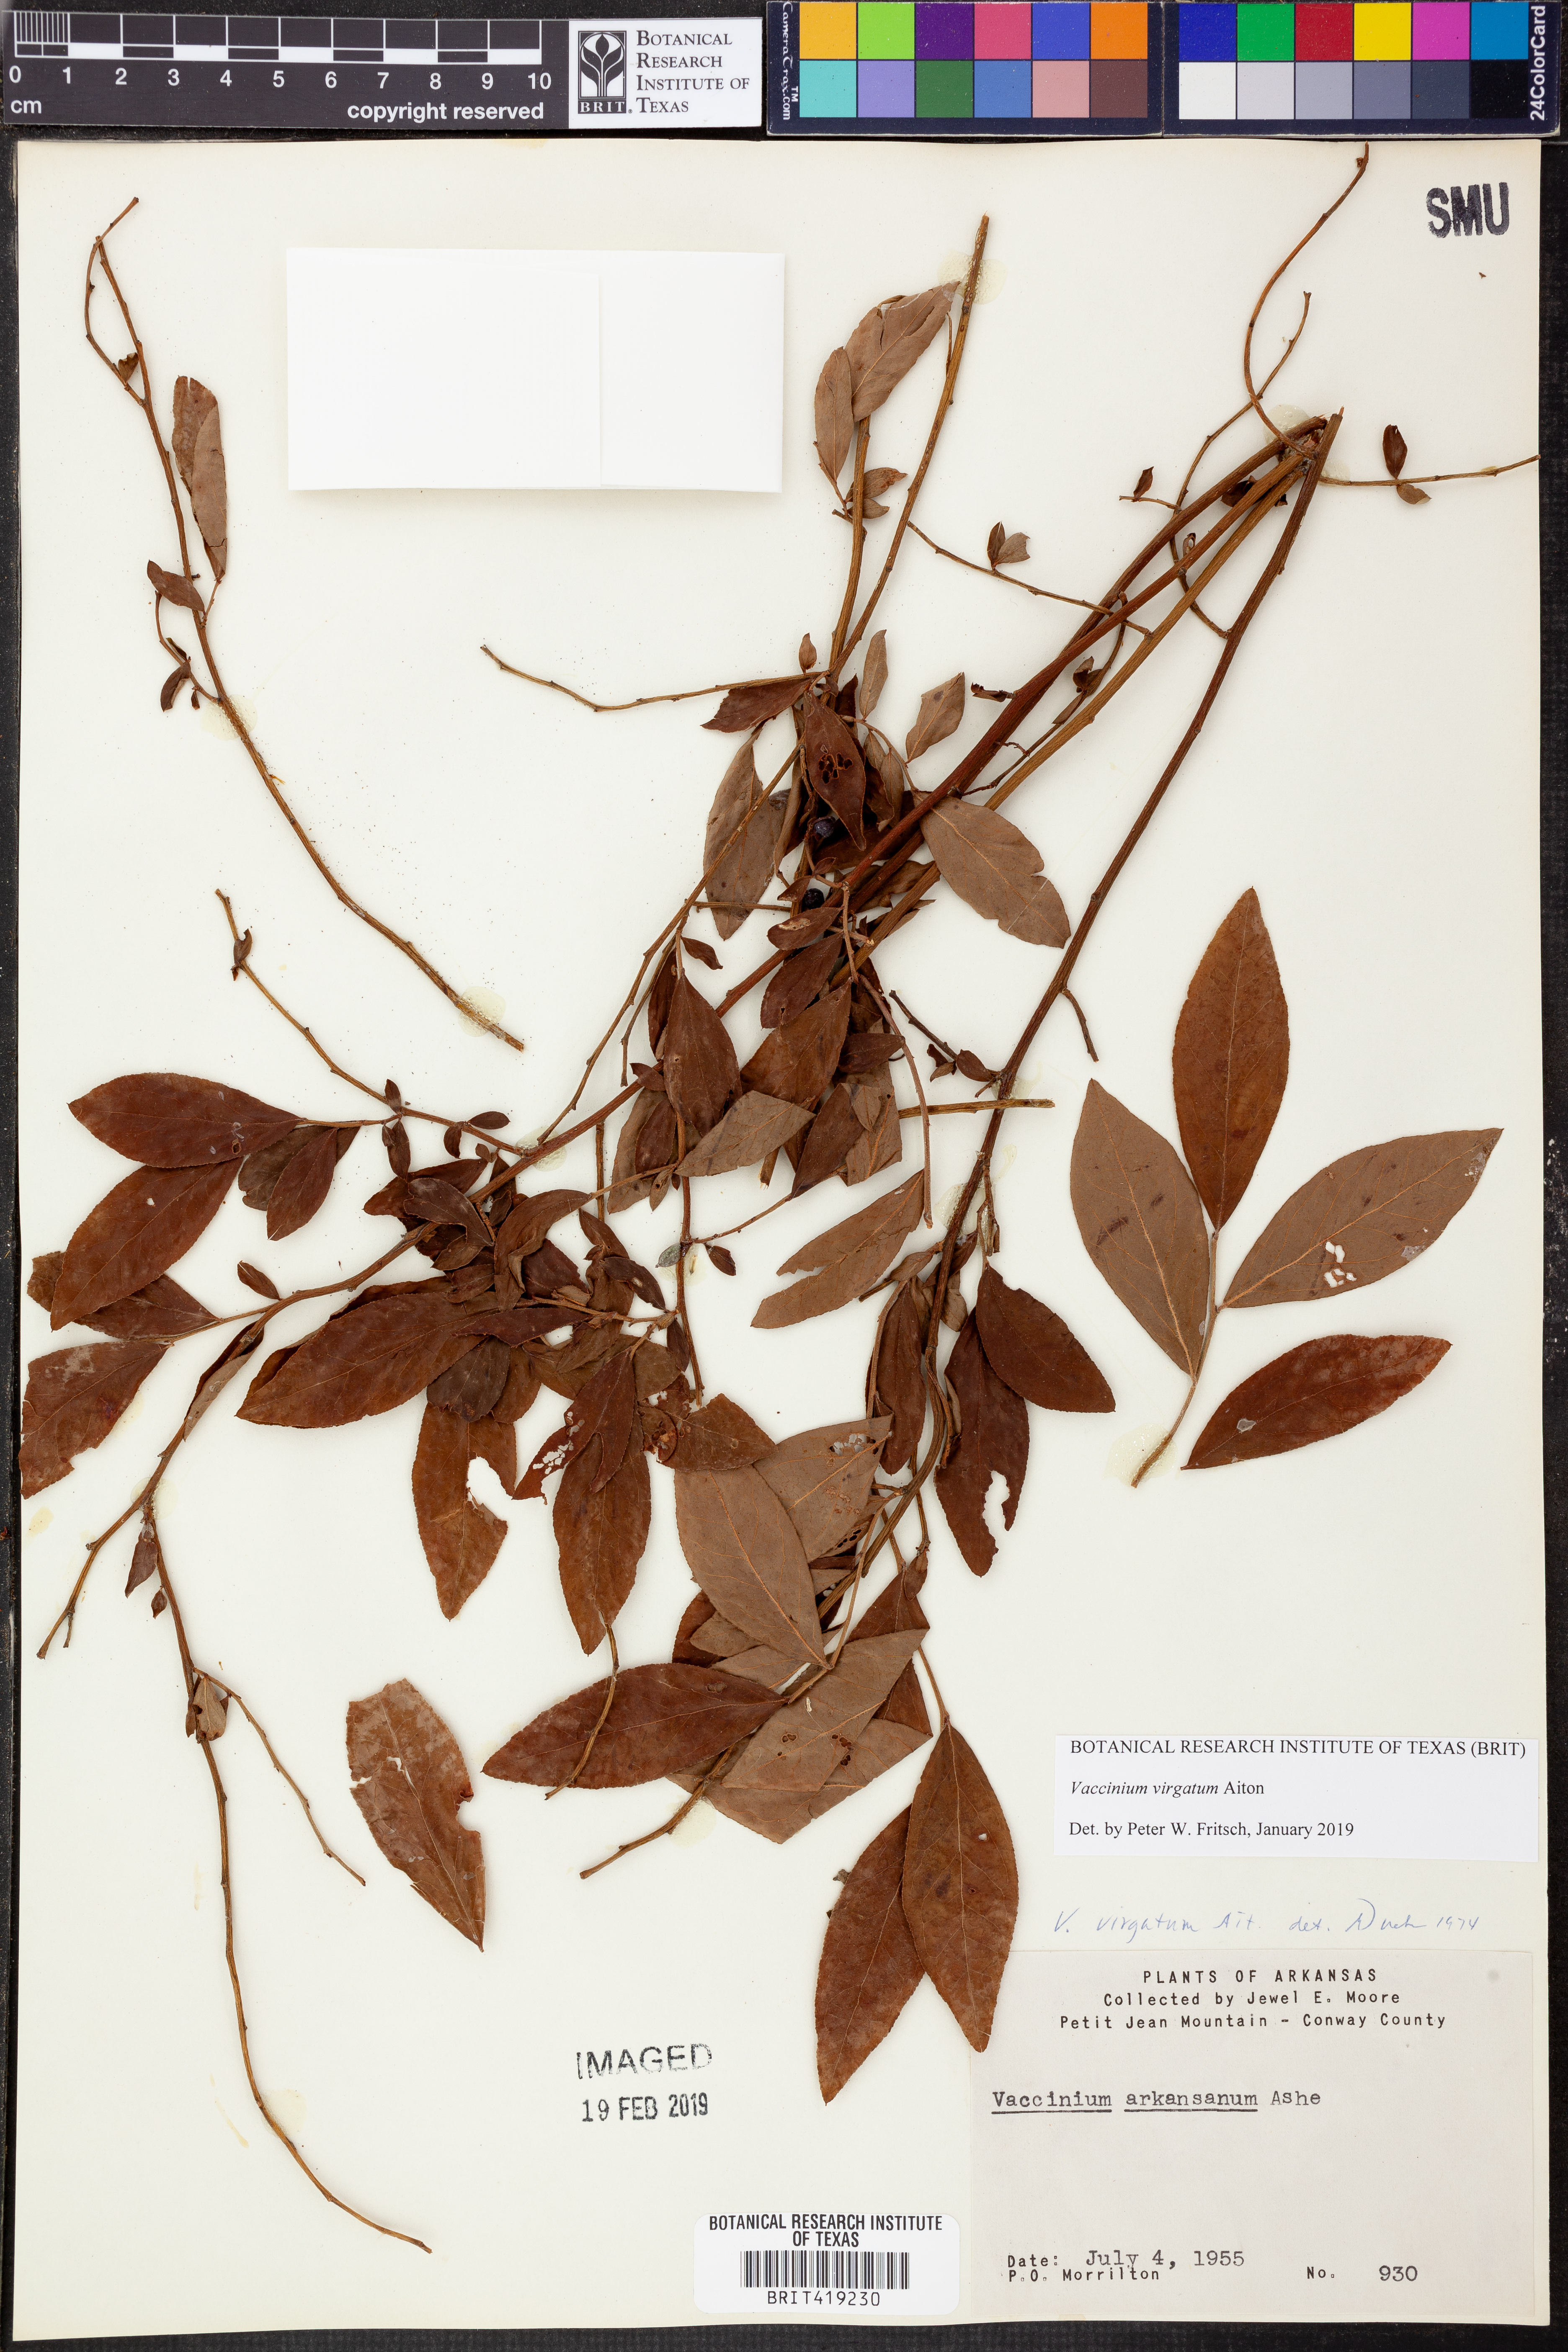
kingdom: Plantae
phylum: Tracheophyta
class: Magnoliopsida
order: Ericales
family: Ericaceae
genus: Vaccinium
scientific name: Vaccinium corymbosum
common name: Blueberry
